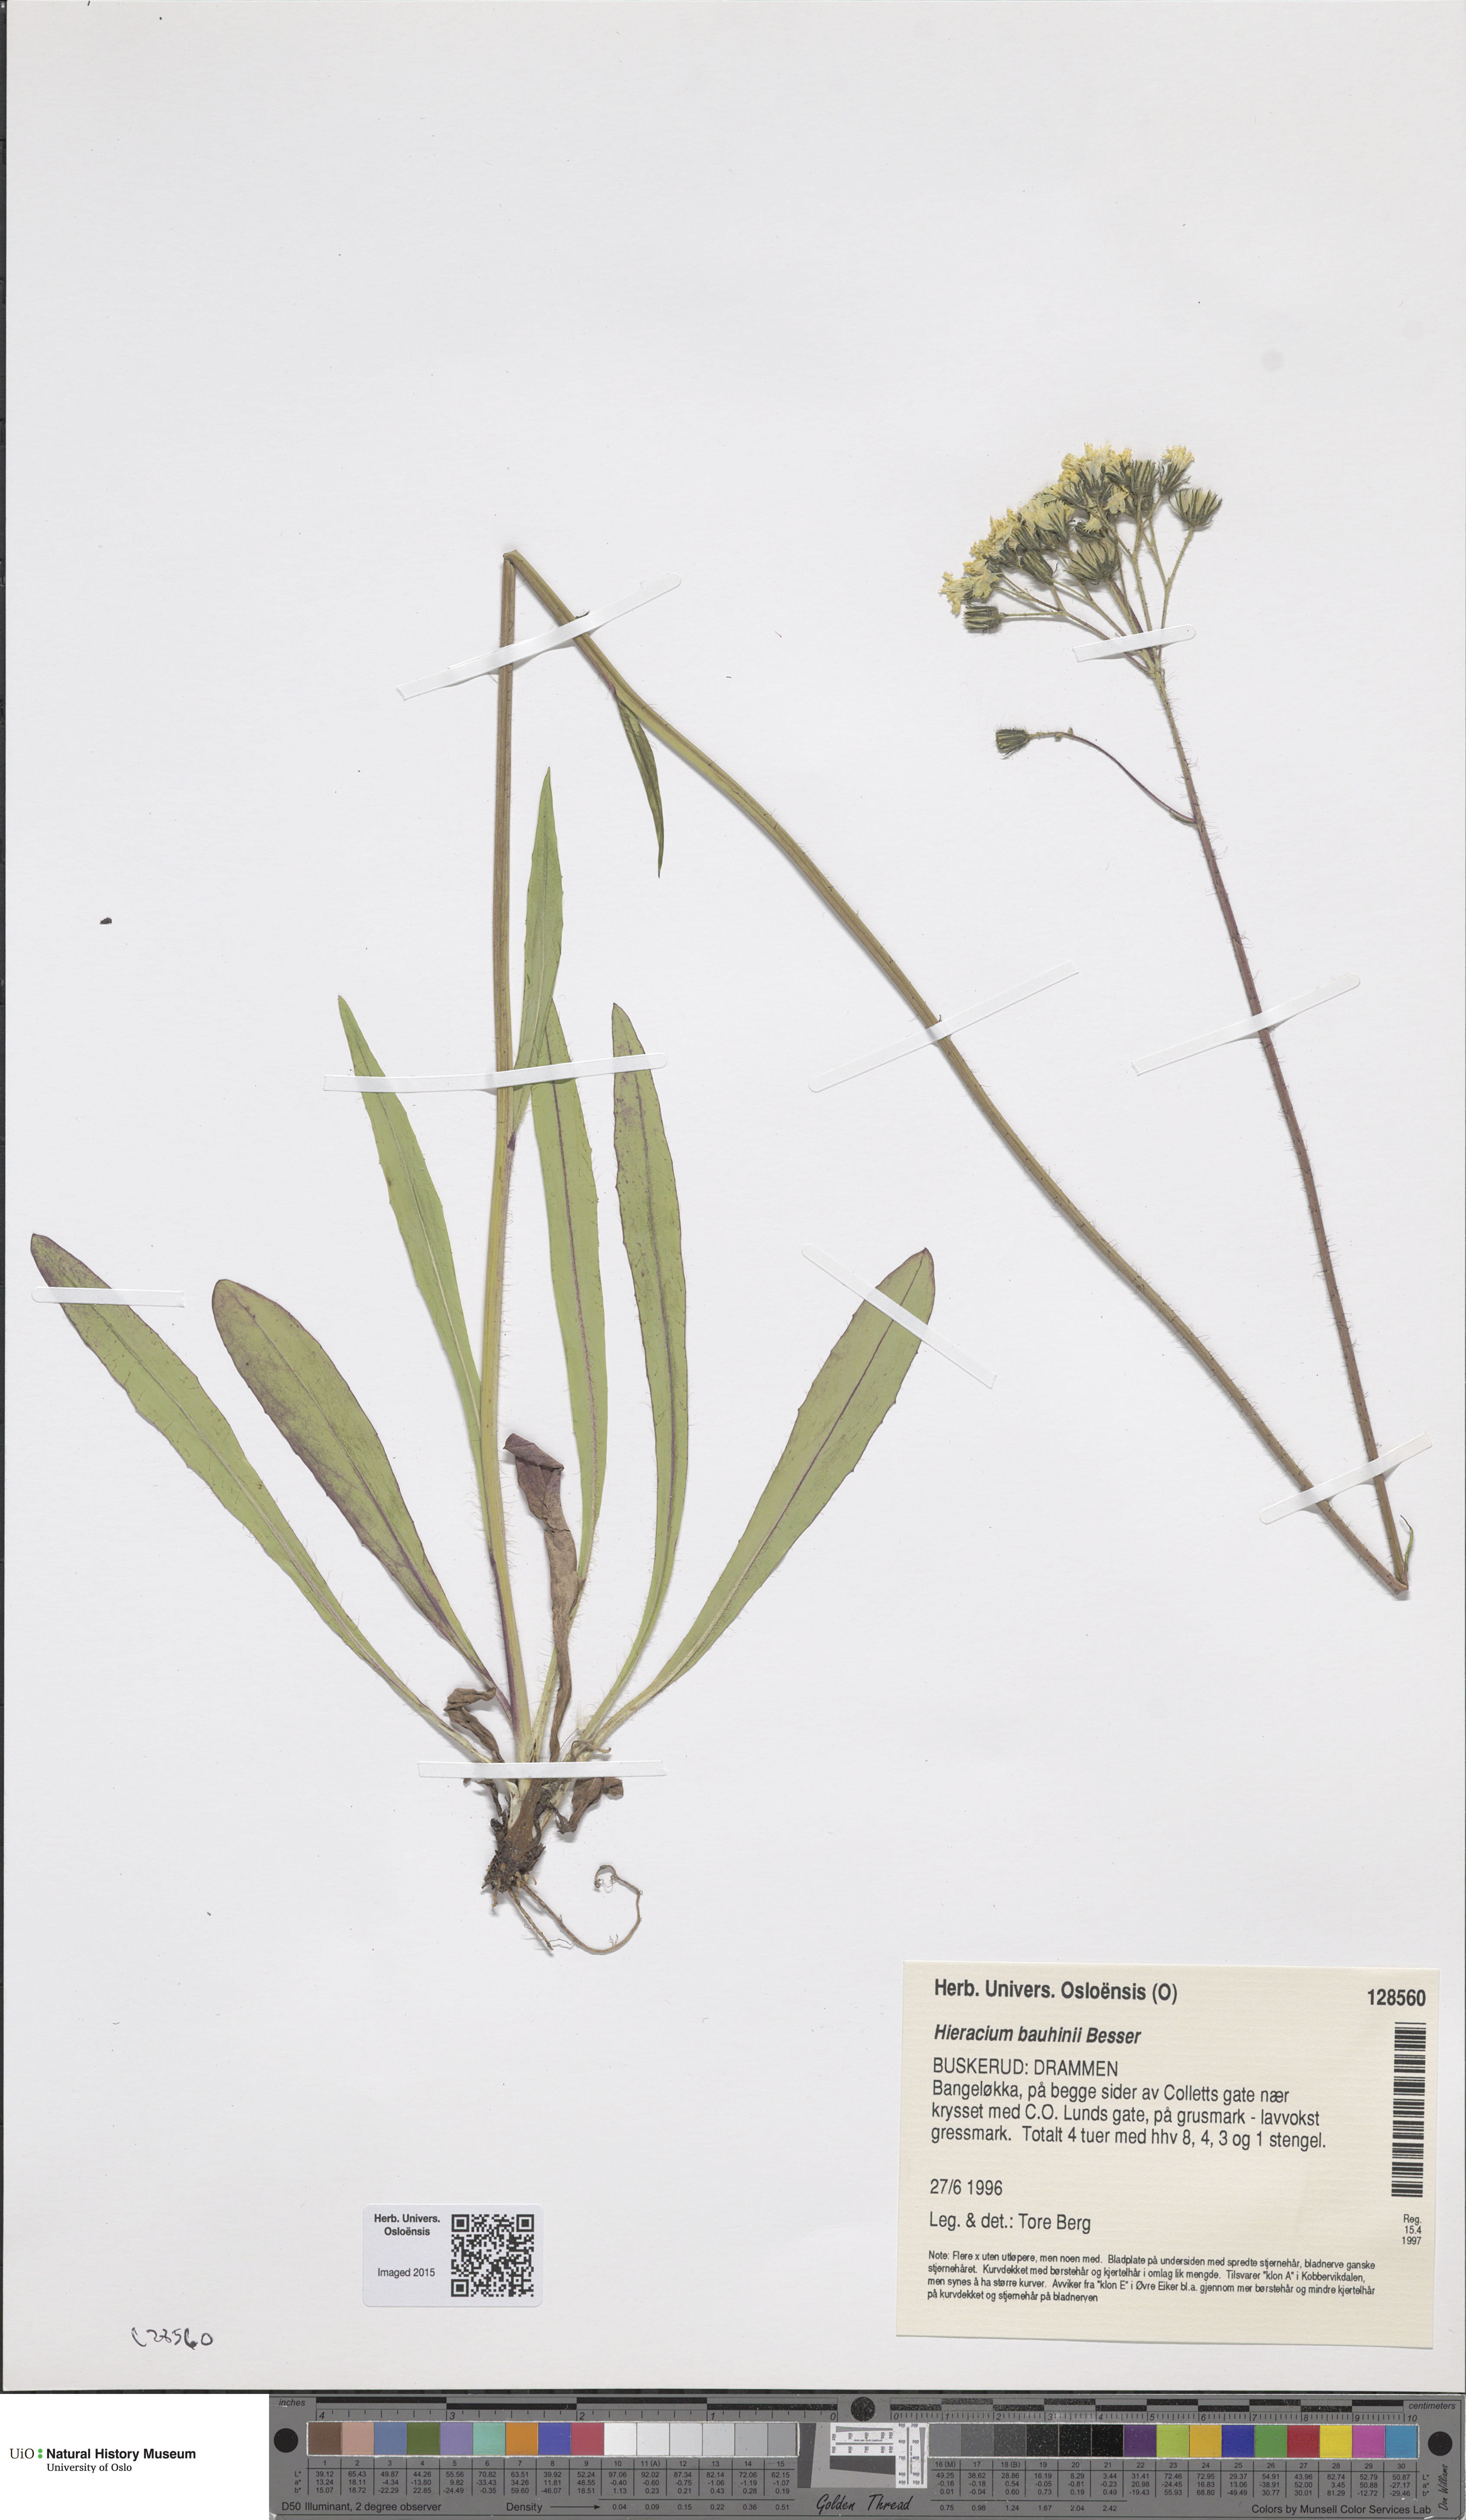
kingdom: Plantae
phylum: Tracheophyta
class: Magnoliopsida
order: Asterales
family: Asteraceae
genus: Pilosella
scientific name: Pilosella bauhini
